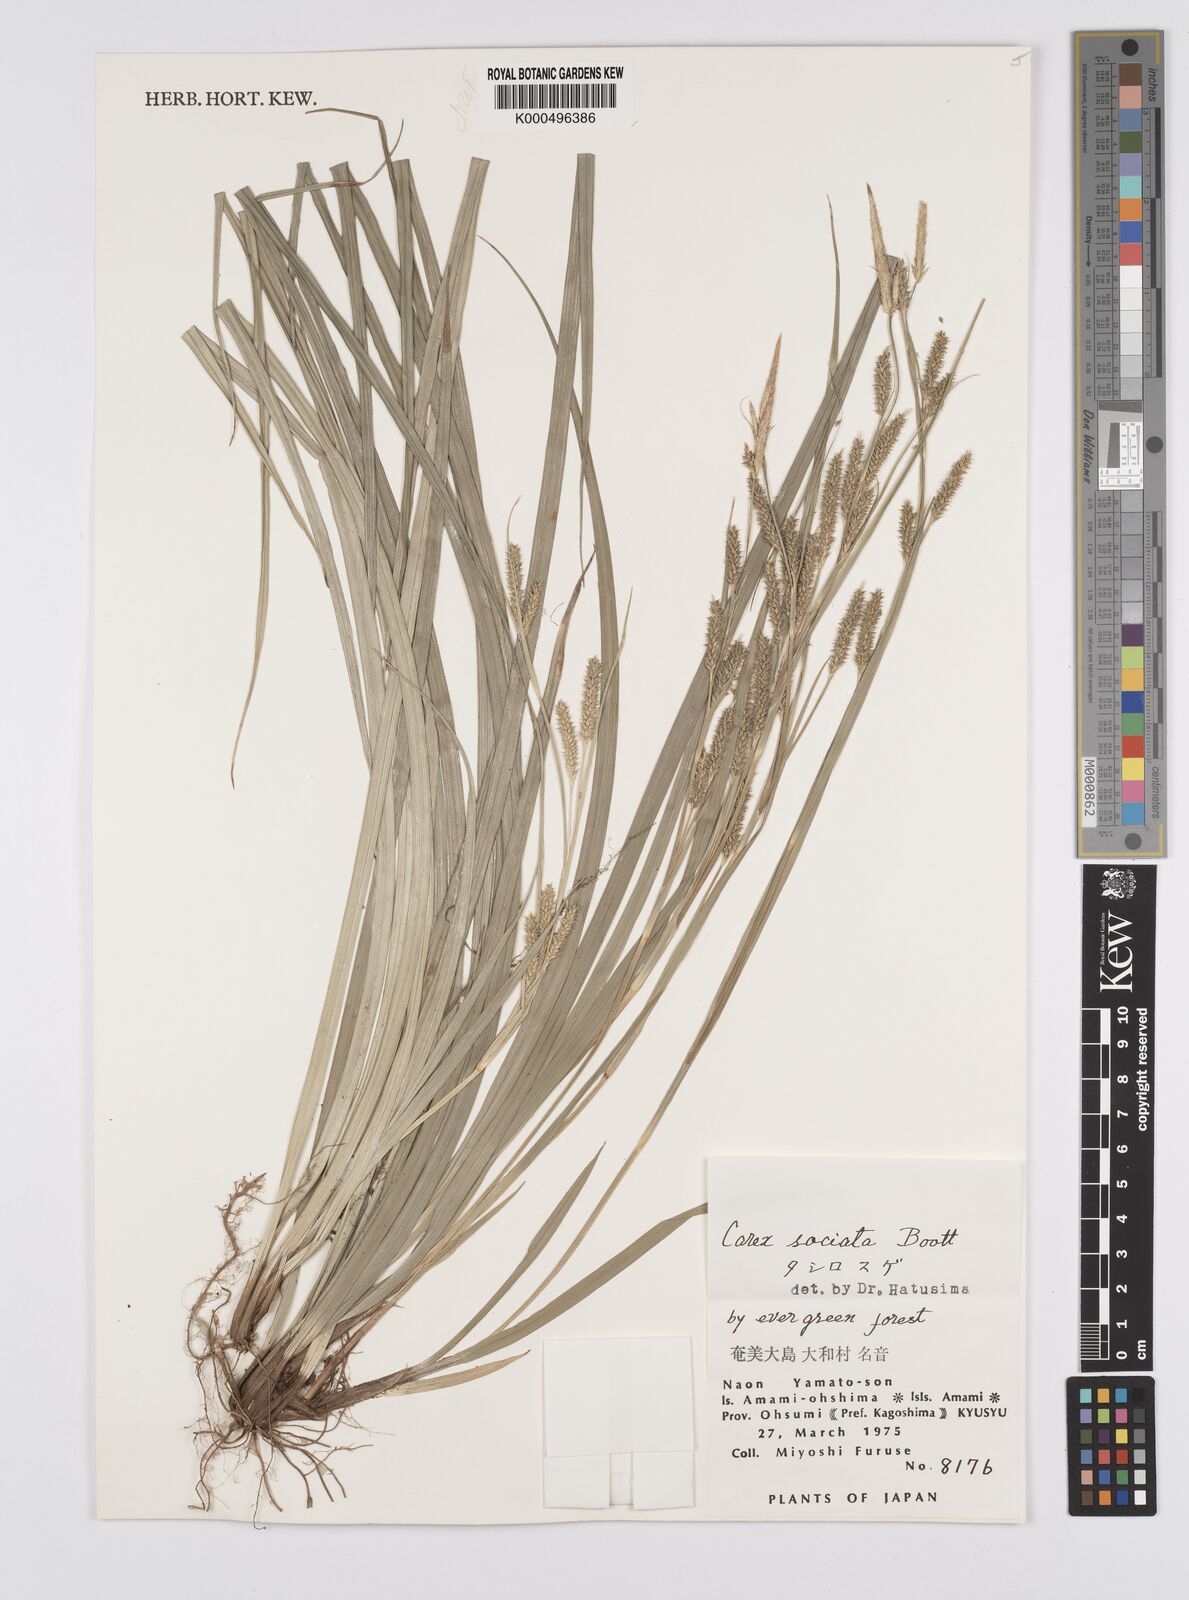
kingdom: Plantae
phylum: Tracheophyta
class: Liliopsida
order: Poales
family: Cyperaceae
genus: Carex
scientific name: Carex chinensis
